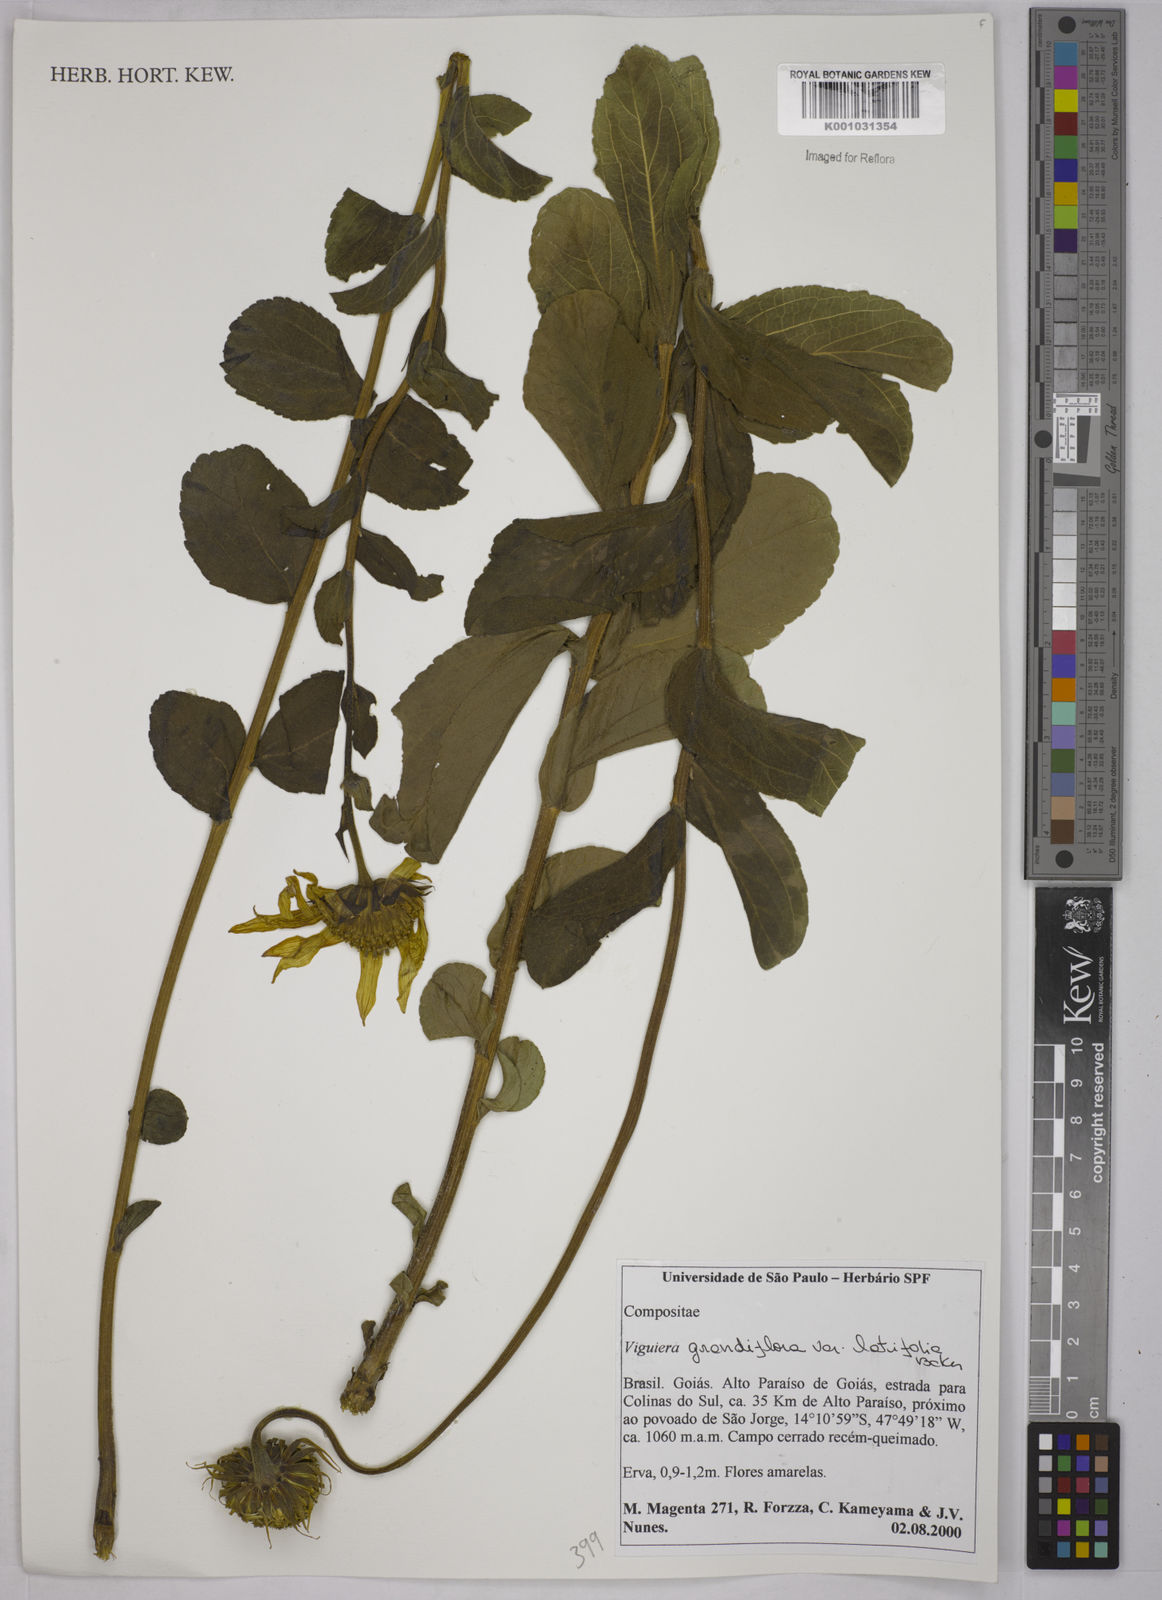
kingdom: Plantae
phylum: Tracheophyta
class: Magnoliopsida
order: Asterales
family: Asteraceae
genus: Aldama
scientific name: Aldama grandiflora
